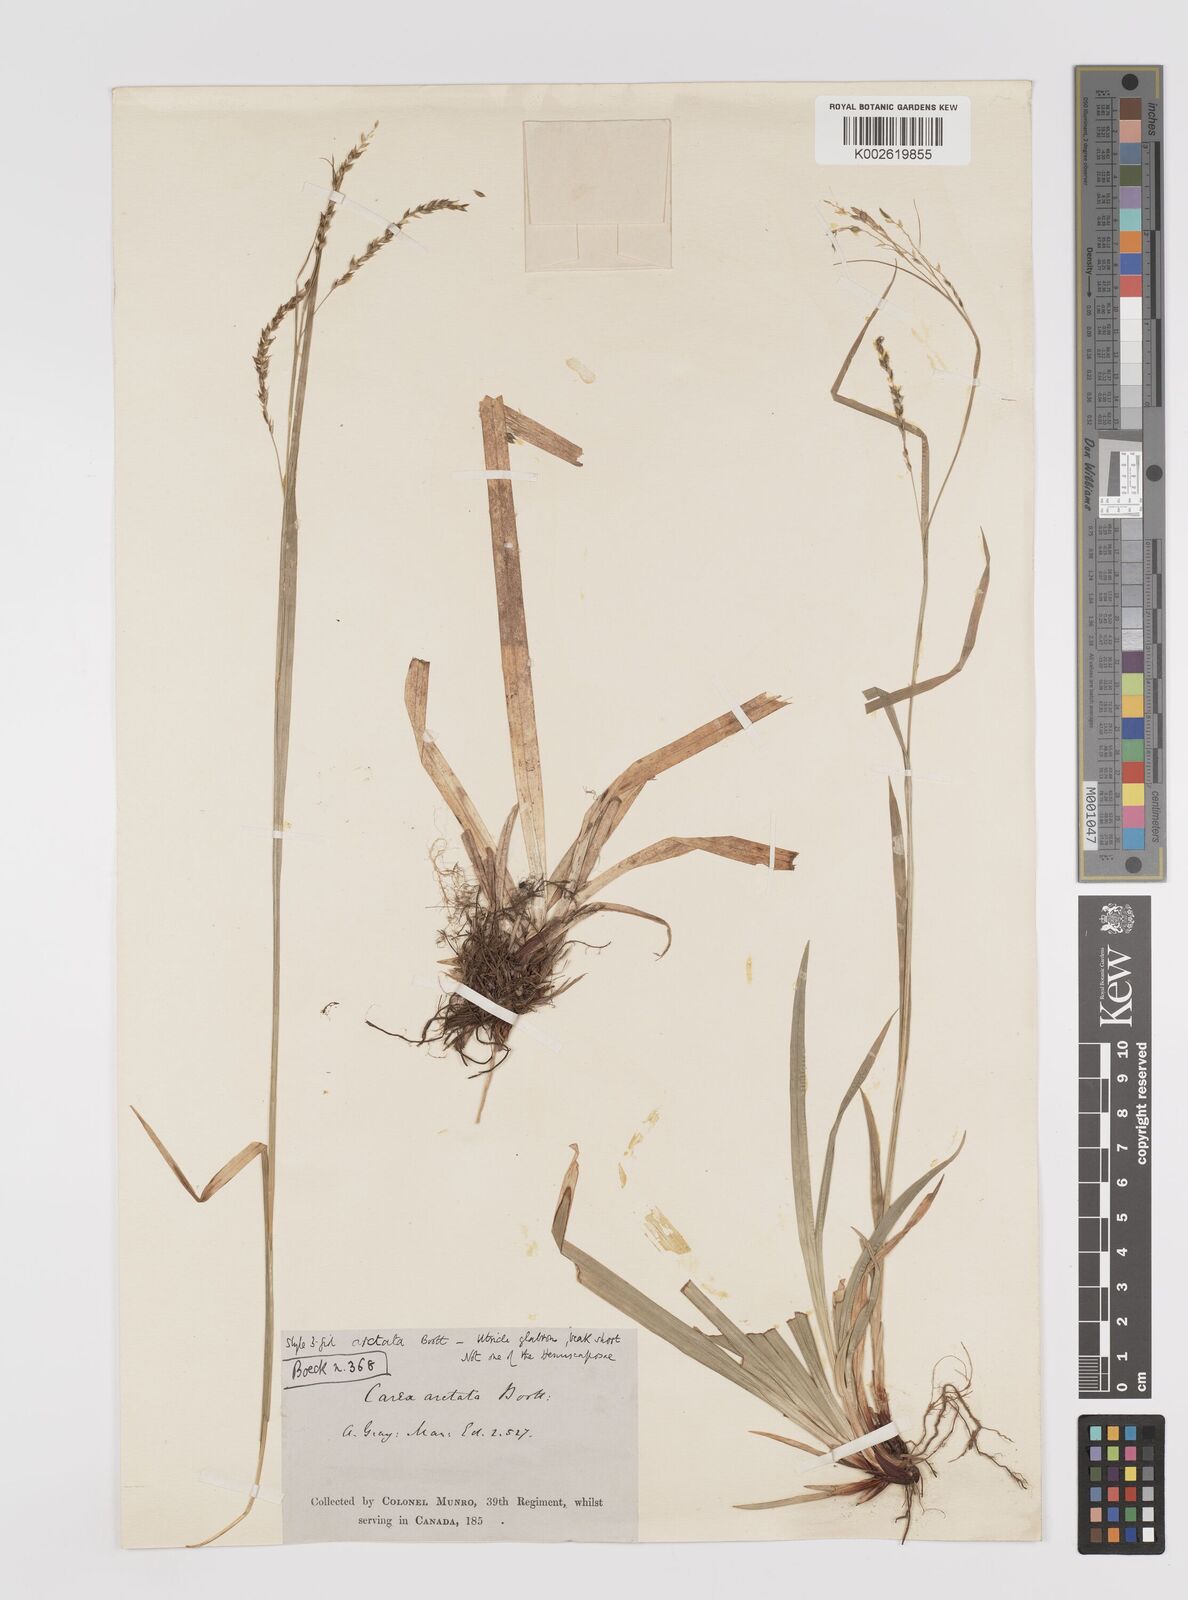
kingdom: Plantae
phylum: Tracheophyta
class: Liliopsida
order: Poales
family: Cyperaceae
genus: Carex
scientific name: Carex arctata
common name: Black sedge
